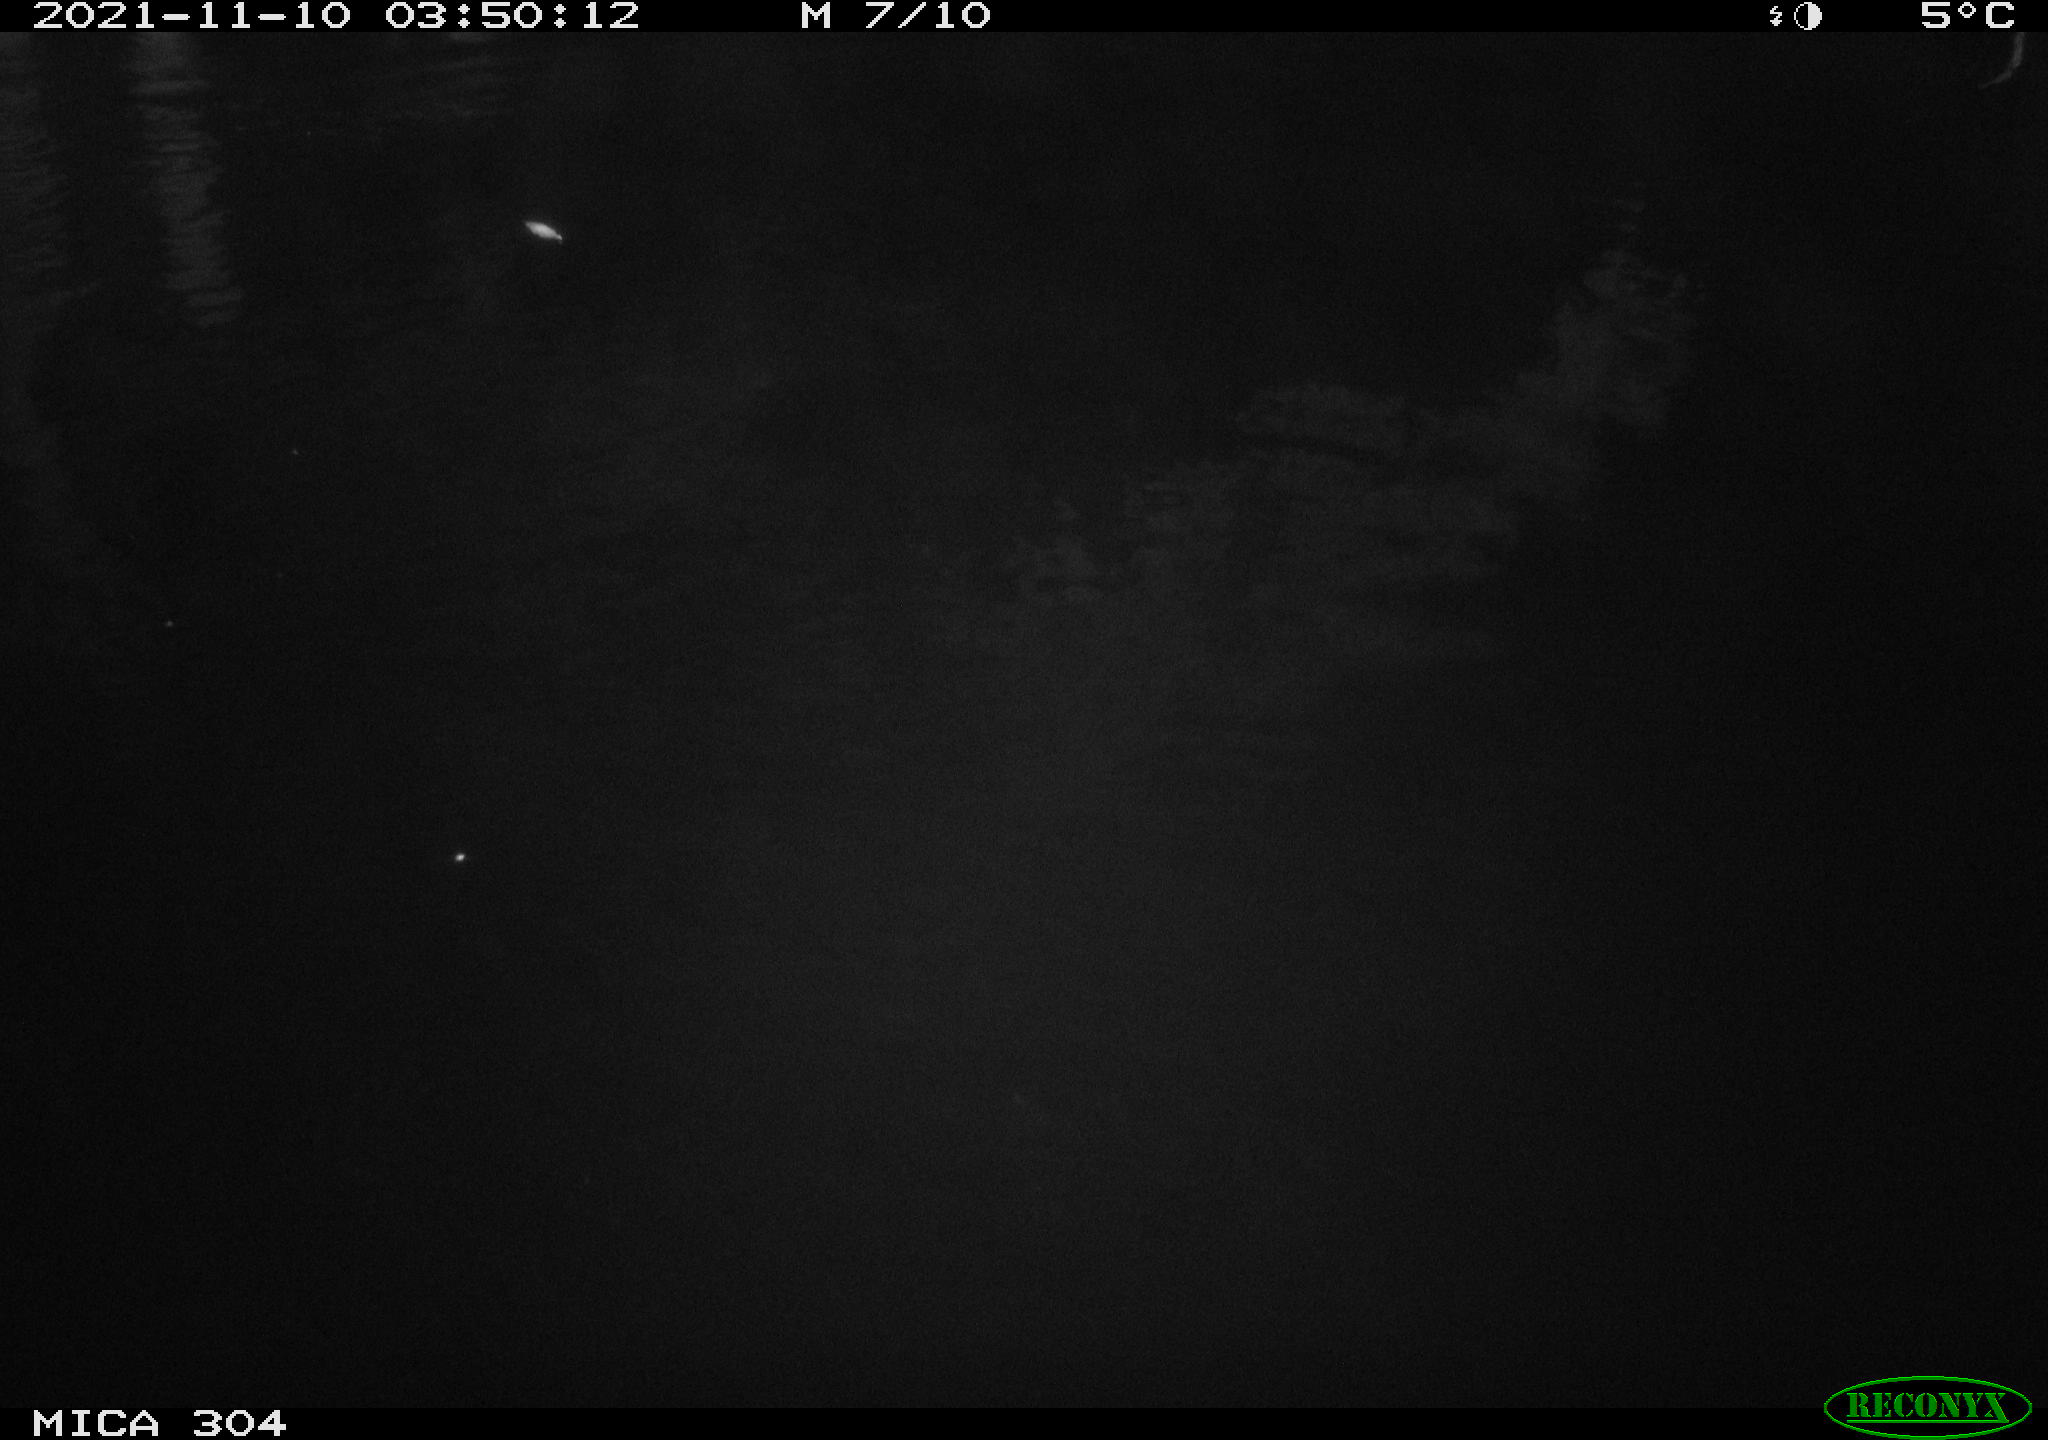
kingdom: Animalia
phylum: Chordata
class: Mammalia
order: Rodentia
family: Muridae
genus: Rattus
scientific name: Rattus norvegicus
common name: Brown rat
